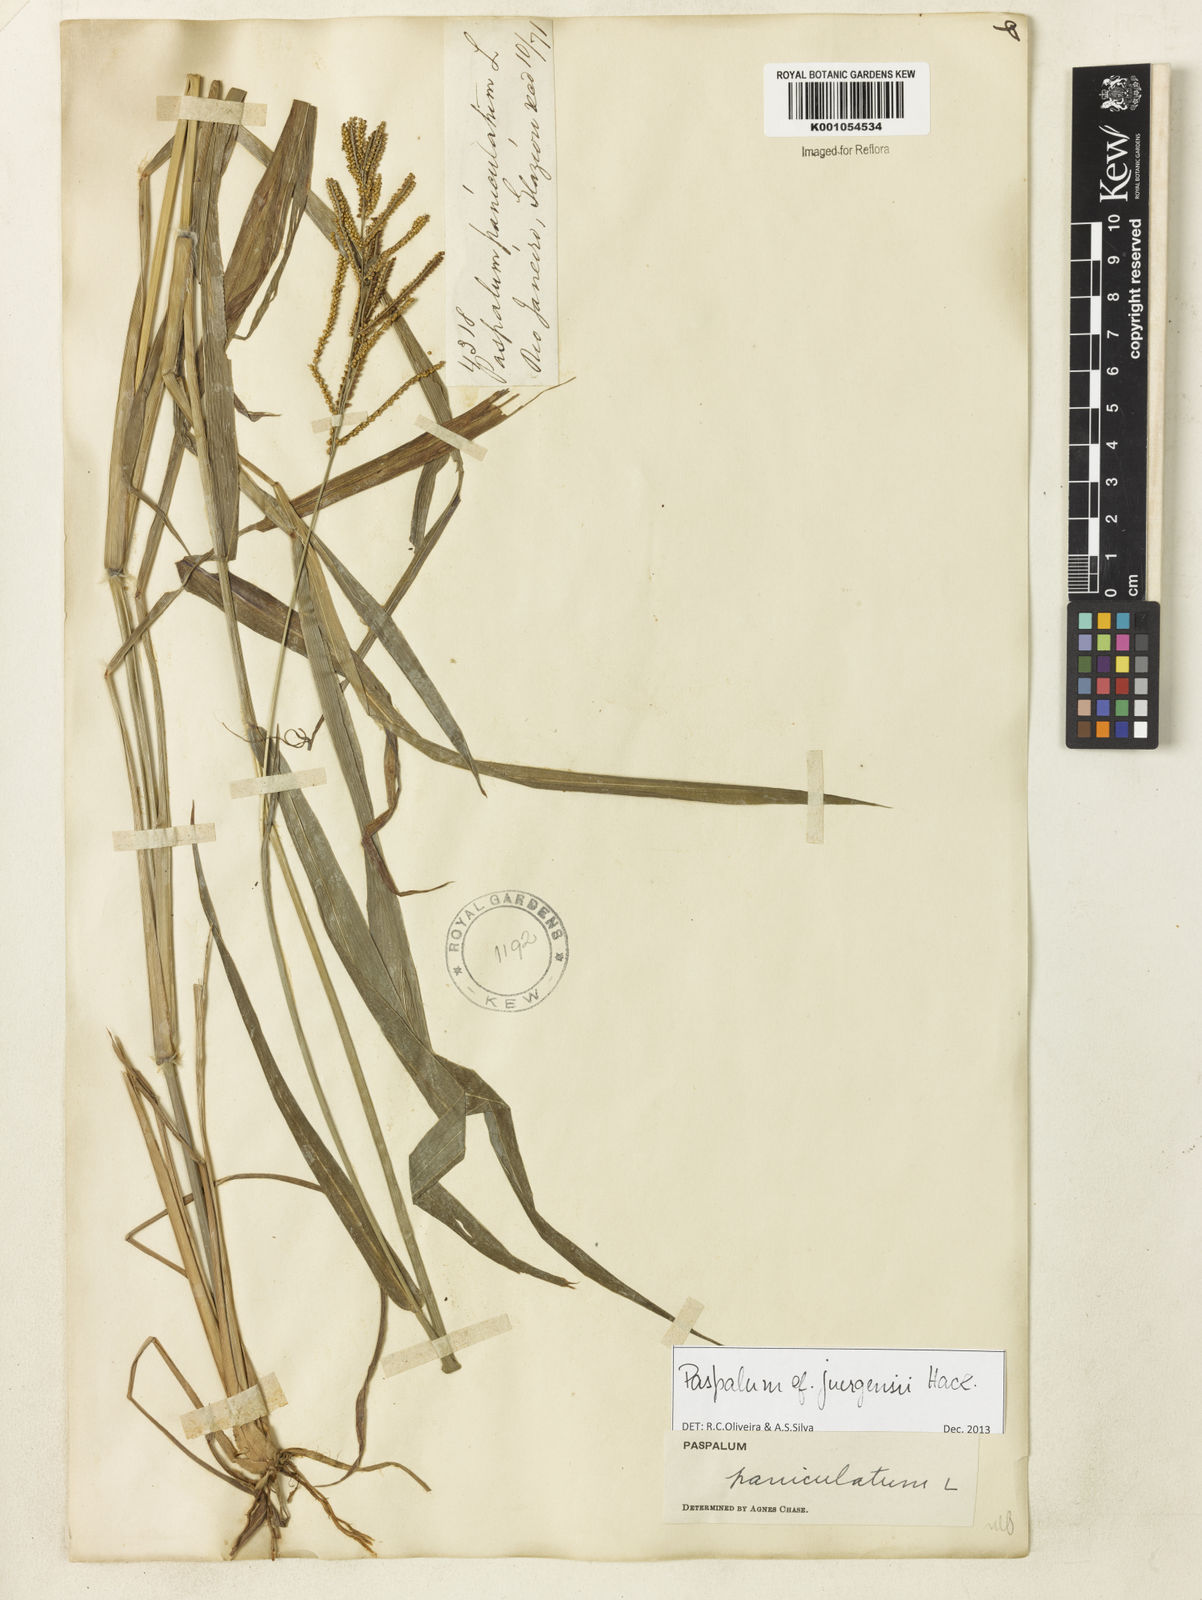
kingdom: Plantae
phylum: Tracheophyta
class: Liliopsida
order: Poales
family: Poaceae
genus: Paspalum
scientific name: Paspalum juergensii
